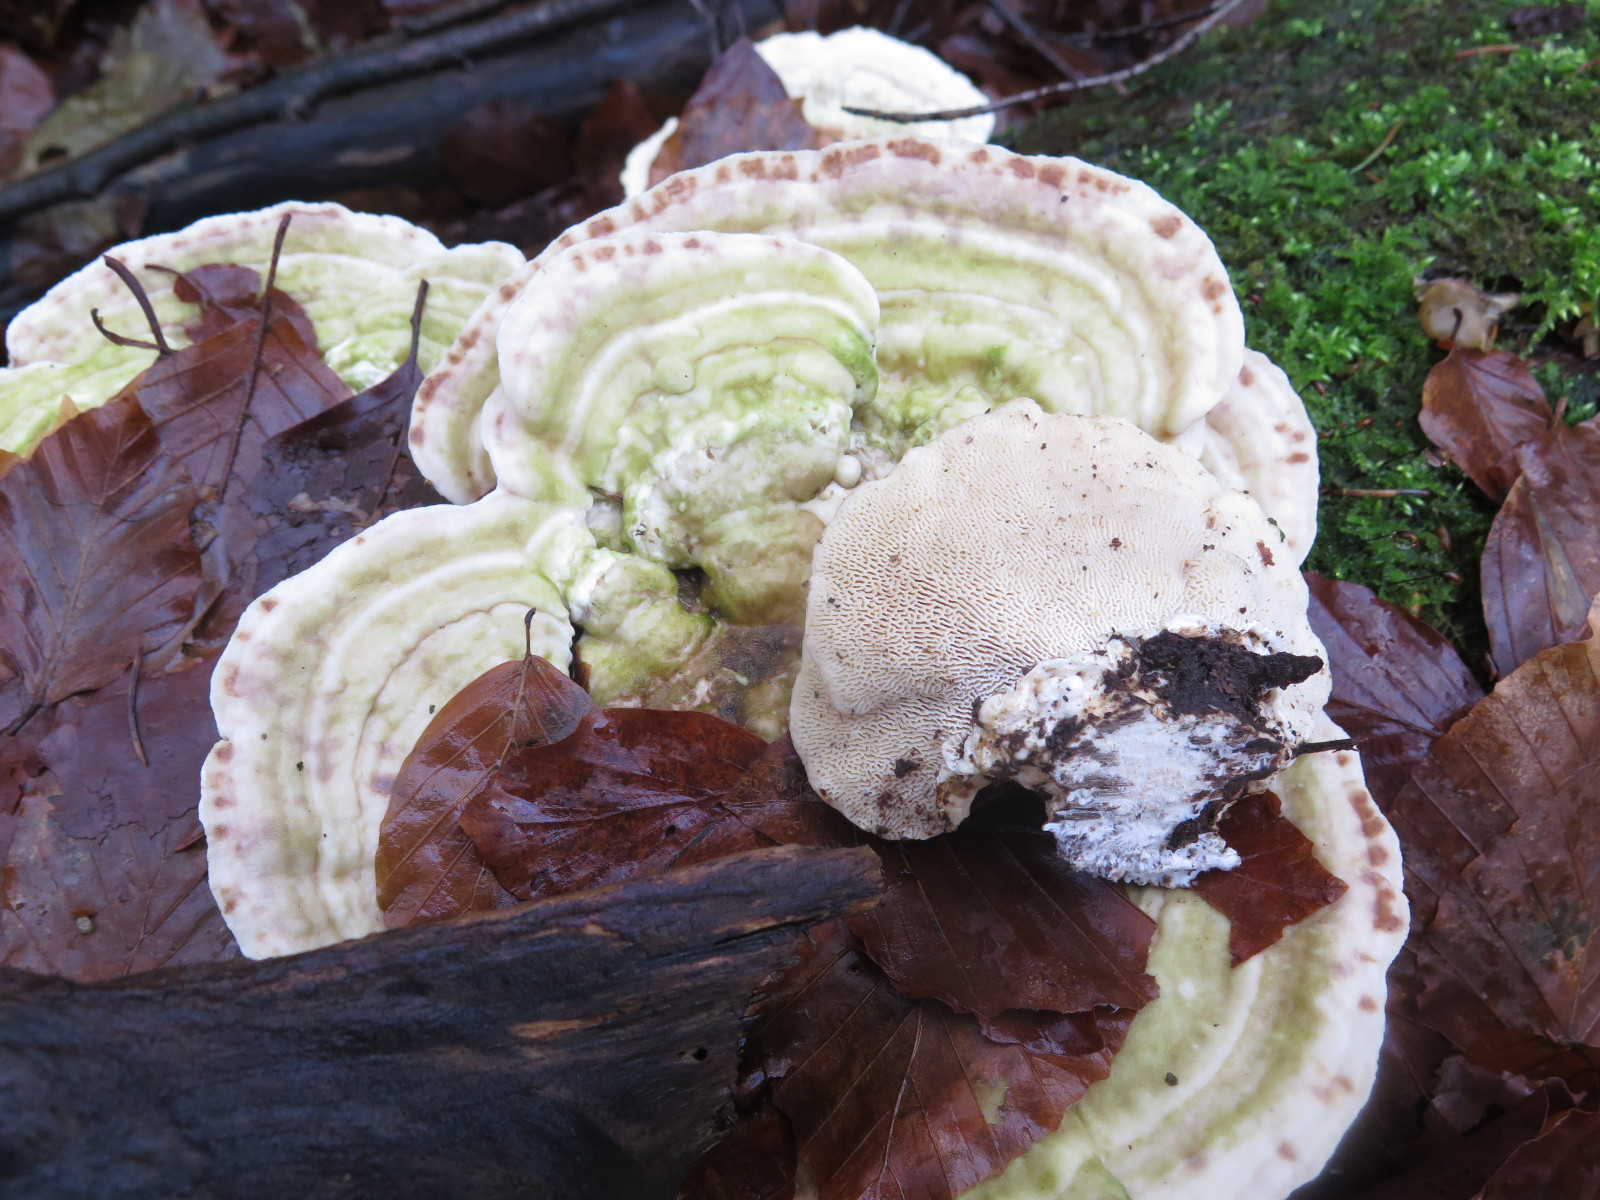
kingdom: Fungi
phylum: Basidiomycota
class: Agaricomycetes
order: Polyporales
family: Polyporaceae
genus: Trametes
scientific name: Trametes gibbosa
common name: puklet læderporesvamp
